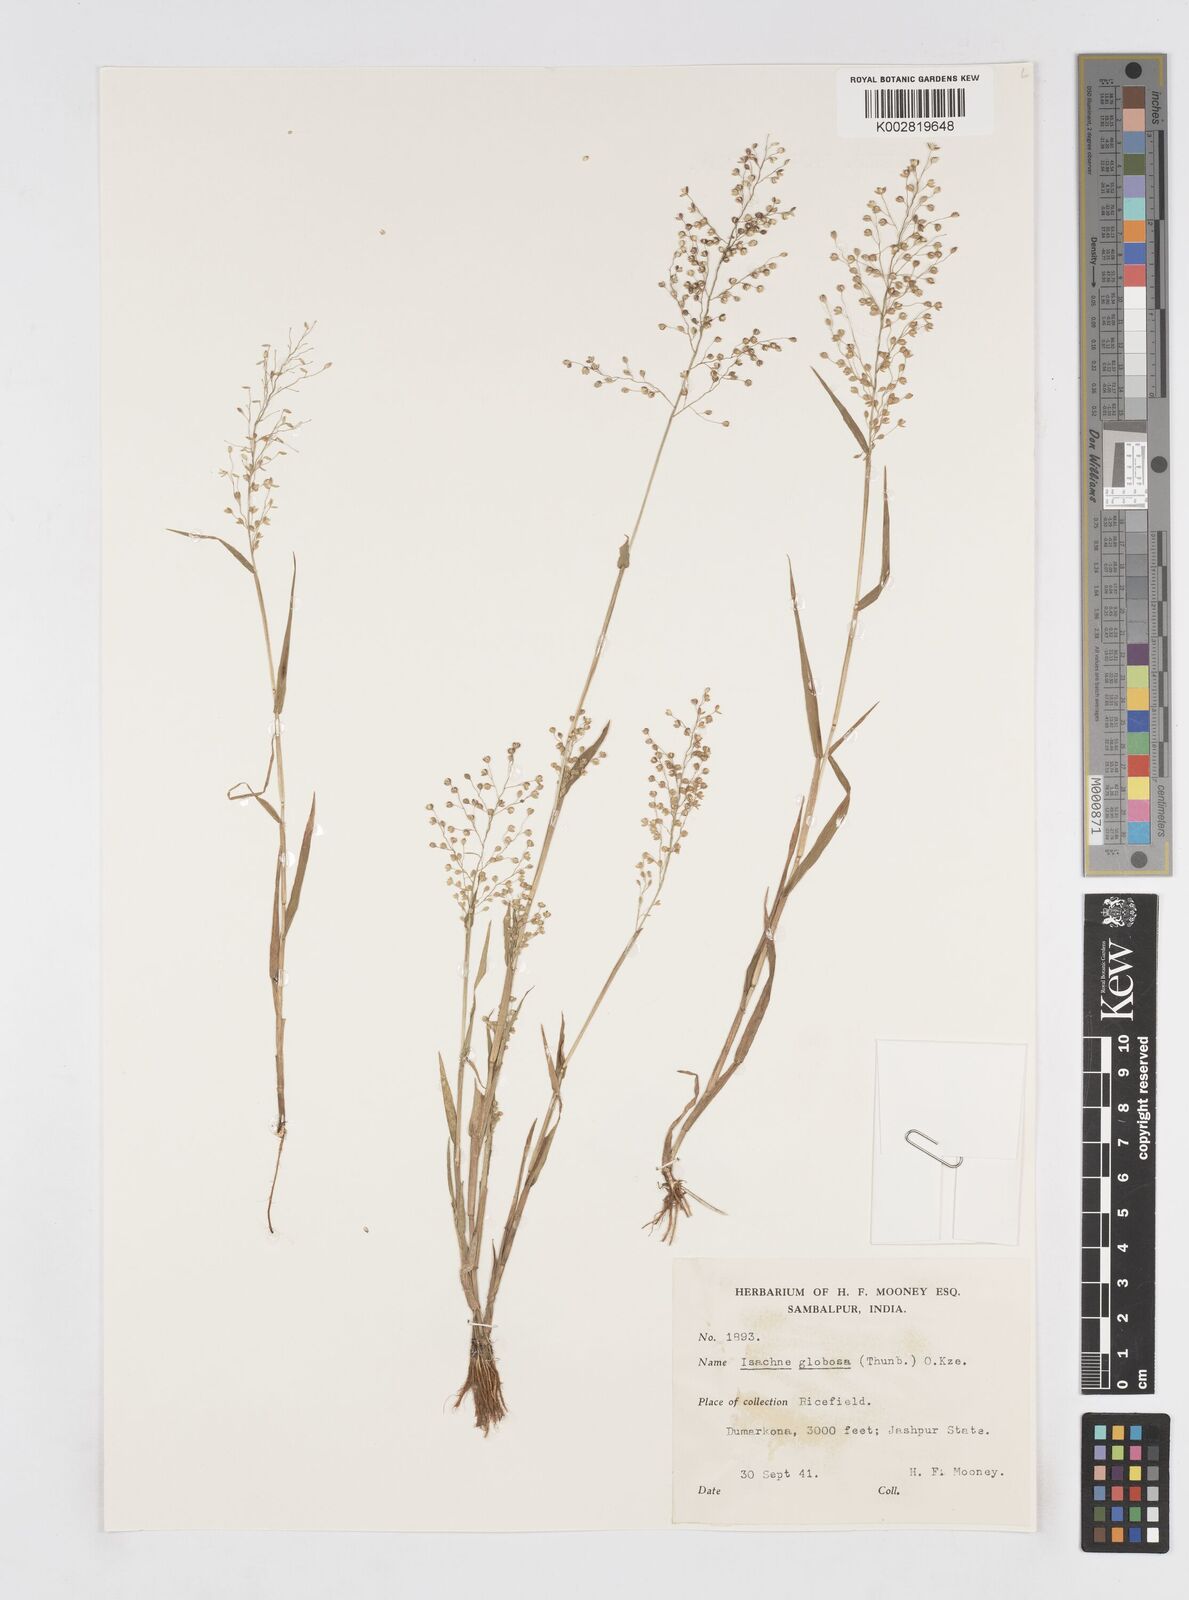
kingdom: Plantae
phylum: Tracheophyta
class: Liliopsida
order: Poales
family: Poaceae
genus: Isachne
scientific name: Isachne globosa
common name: Swamp millet
